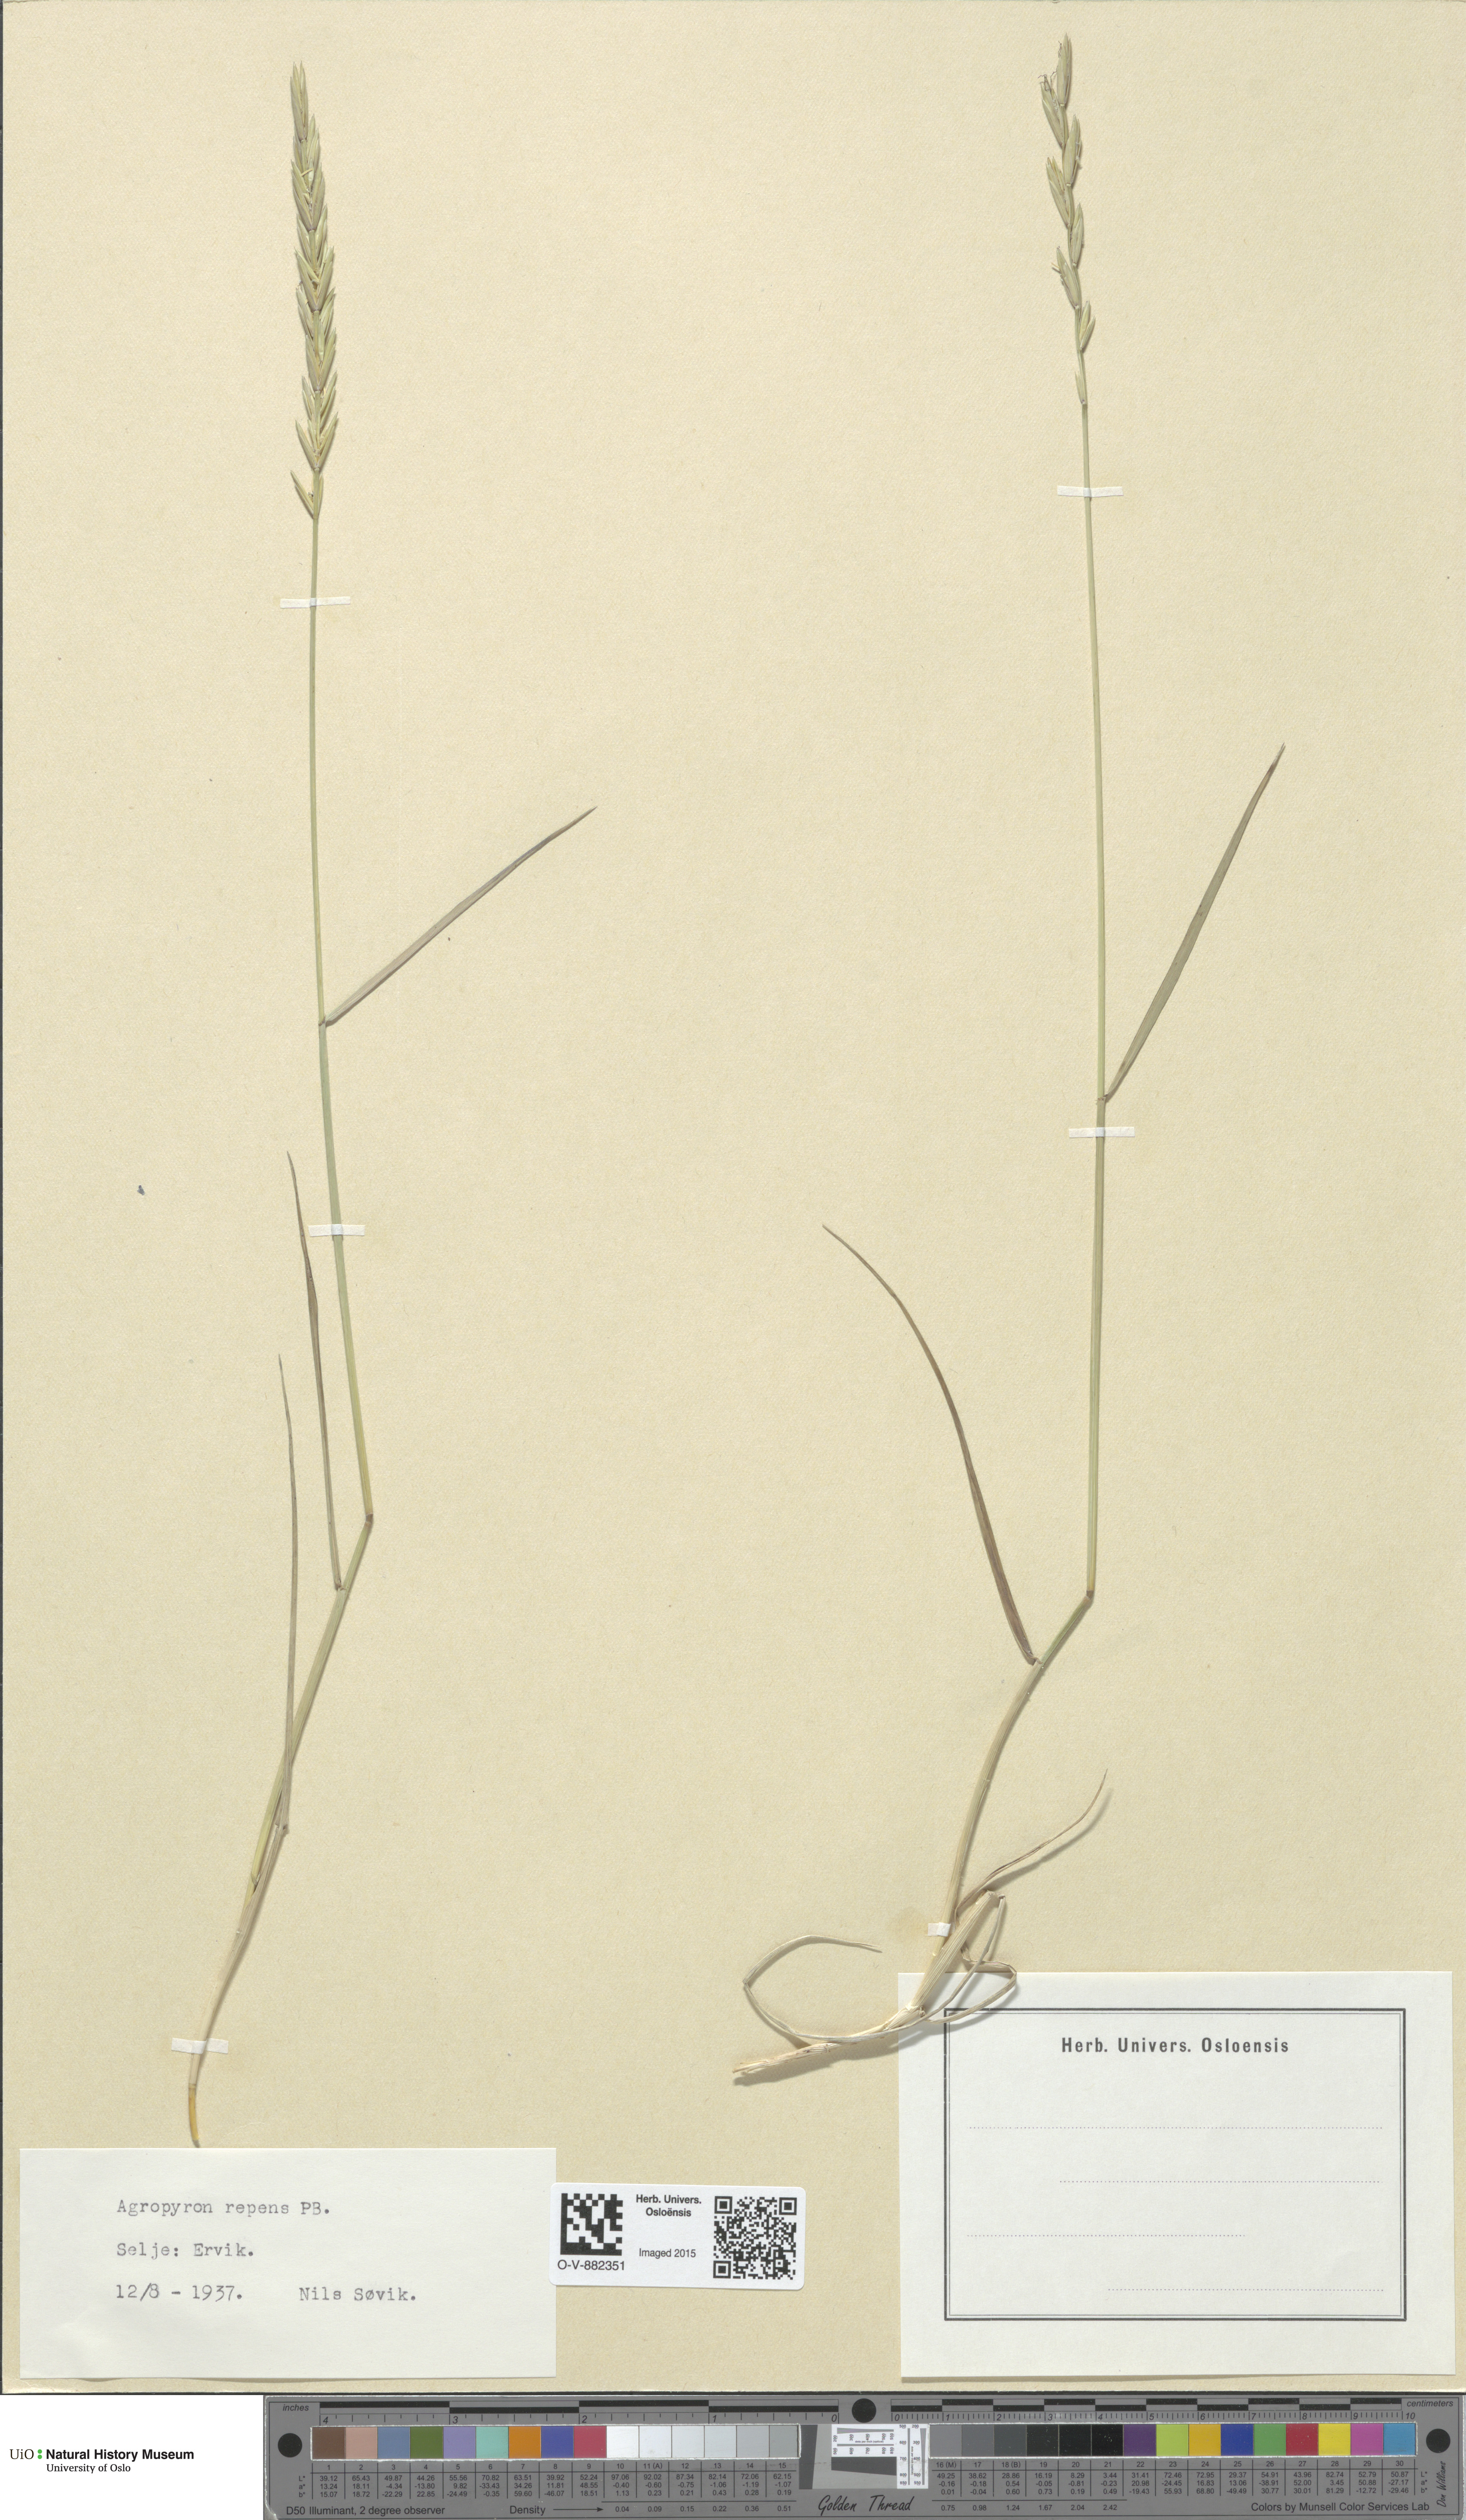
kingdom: Plantae
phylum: Tracheophyta
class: Liliopsida
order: Poales
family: Poaceae
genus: Elymus
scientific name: Elymus repens
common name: Quackgrass
